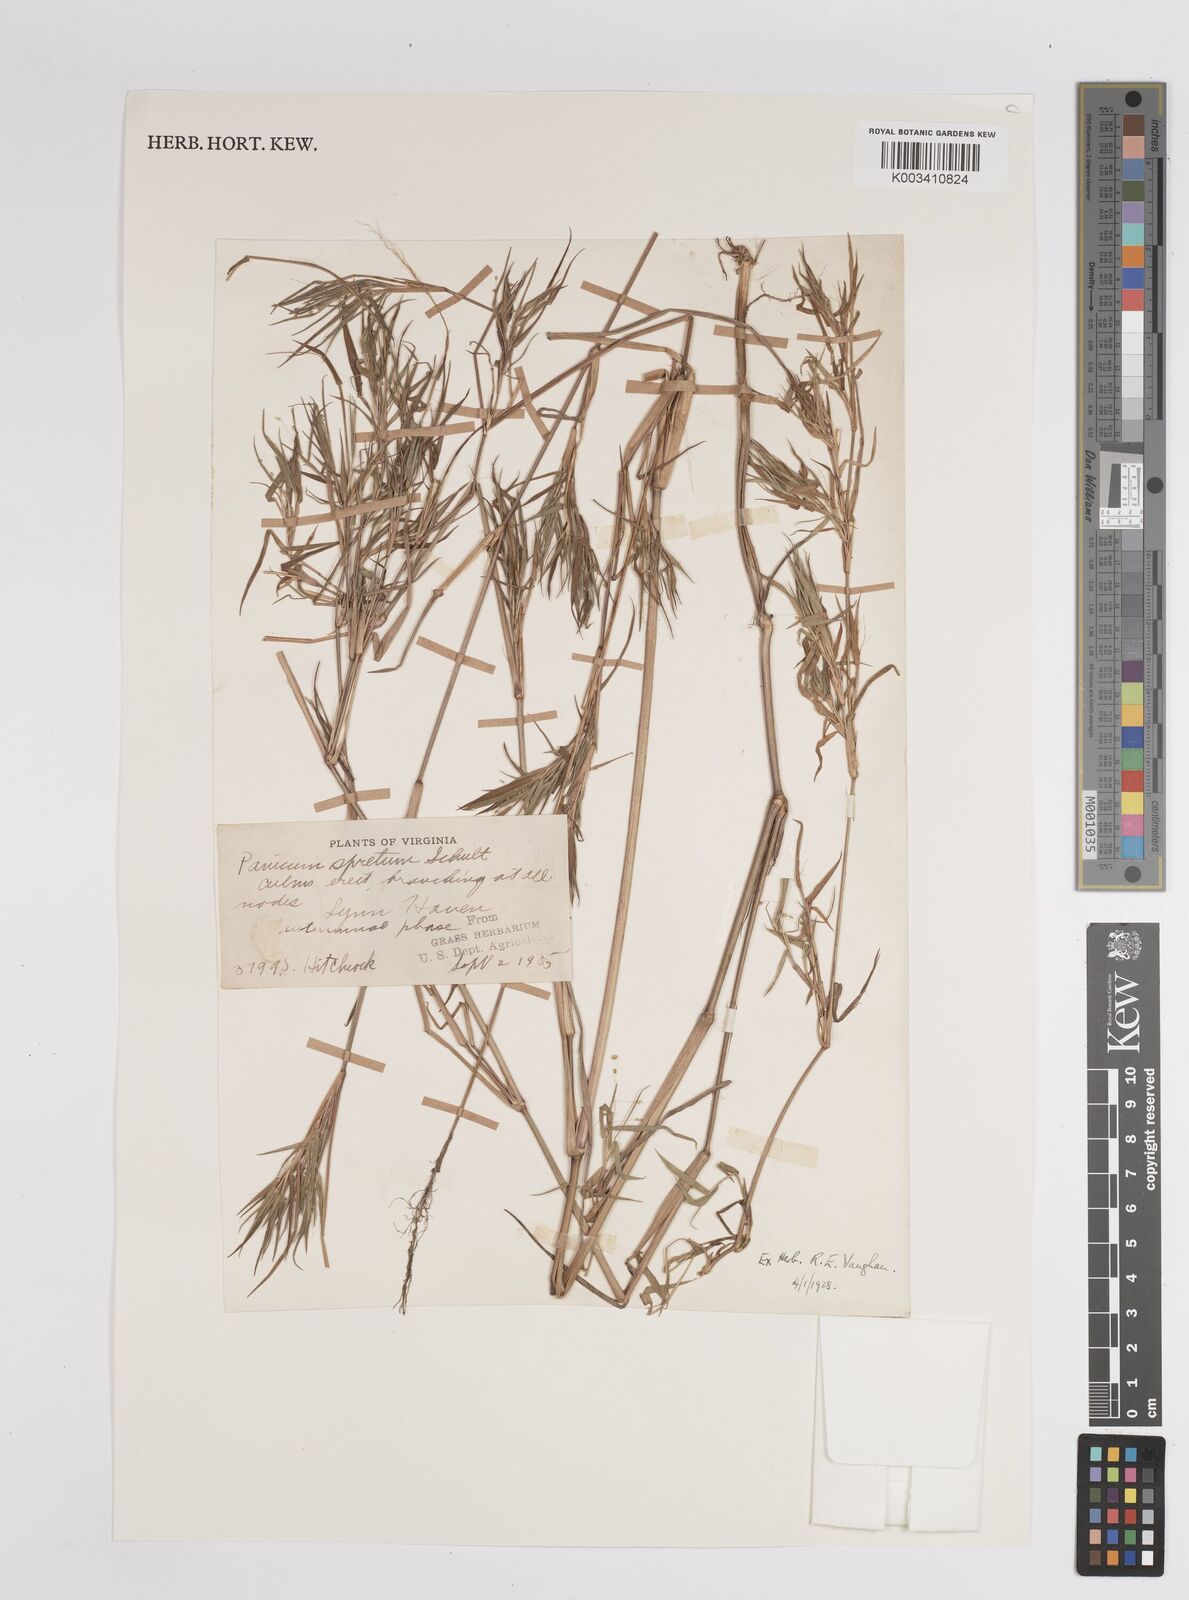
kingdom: Plantae
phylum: Tracheophyta
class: Liliopsida
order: Poales
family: Poaceae
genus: Dichanthelium
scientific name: Dichanthelium implicatum
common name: Slender-stemmed panicgrass
